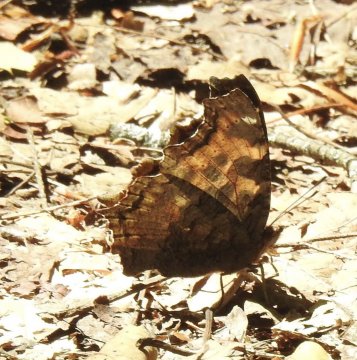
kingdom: Animalia
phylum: Arthropoda
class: Insecta
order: Lepidoptera
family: Nymphalidae
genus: Polygonia
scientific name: Polygonia vaualbum
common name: Compton Tortoiseshell
